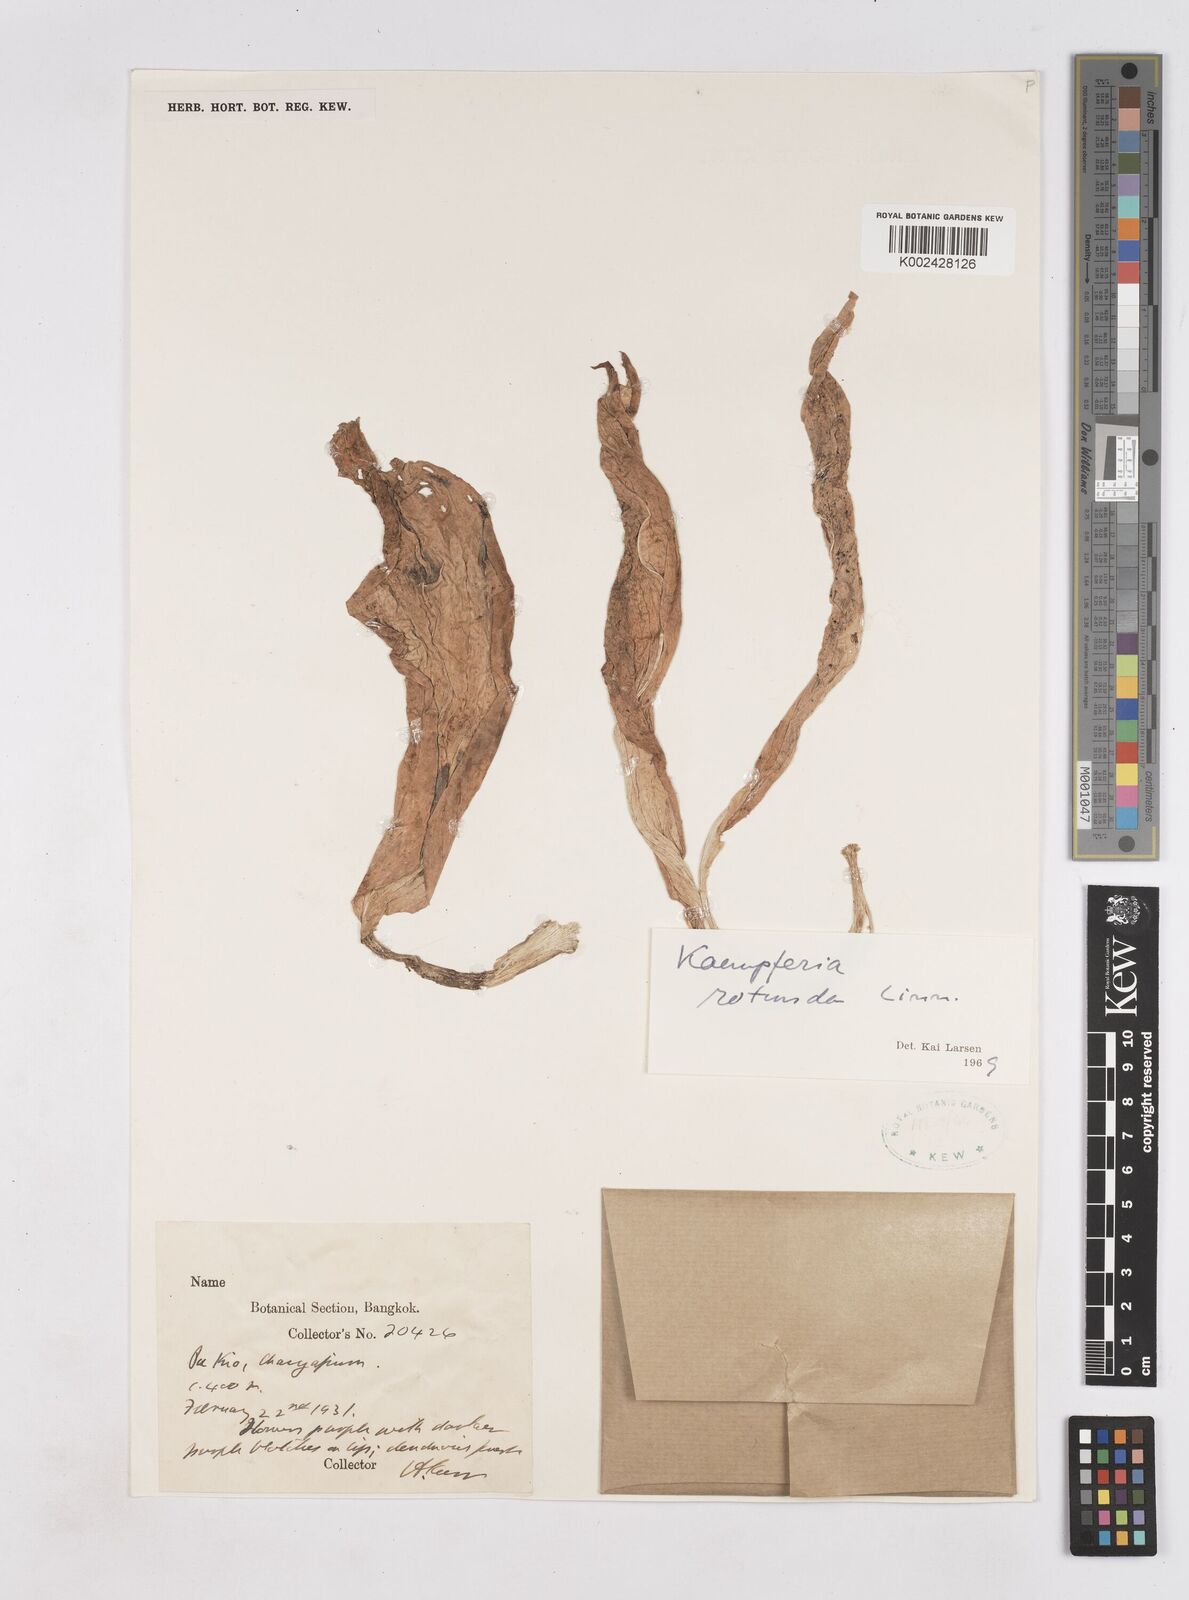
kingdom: Plantae
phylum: Tracheophyta
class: Liliopsida
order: Zingiberales
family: Zingiberaceae
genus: Kaempferia
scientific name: Kaempferia rotunda
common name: Tropical-crocus
